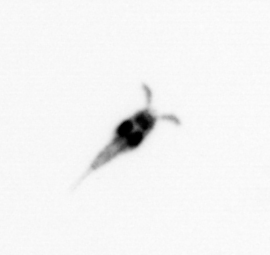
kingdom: Animalia
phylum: Arthropoda
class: Copepoda
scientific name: Copepoda
